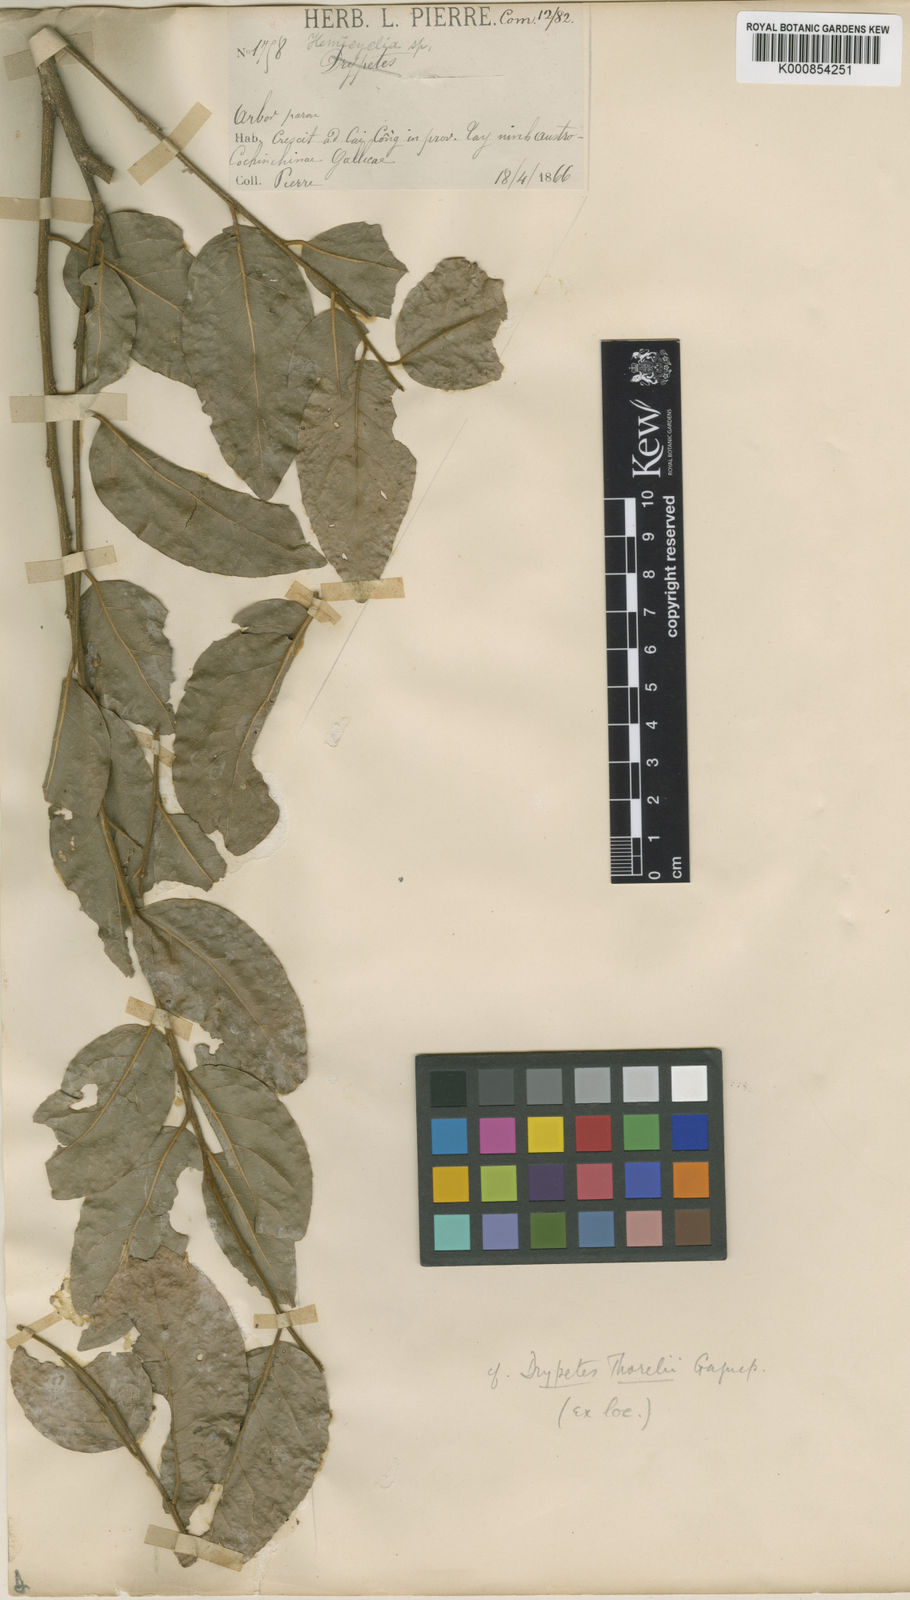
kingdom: Plantae
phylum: Tracheophyta
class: Magnoliopsida
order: Malpighiales
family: Putranjivaceae
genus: Drypetes
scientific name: Drypetes thorelii
